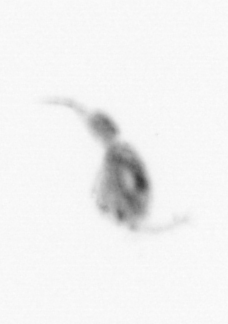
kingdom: Animalia
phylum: Arthropoda
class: Copepoda
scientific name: Copepoda
